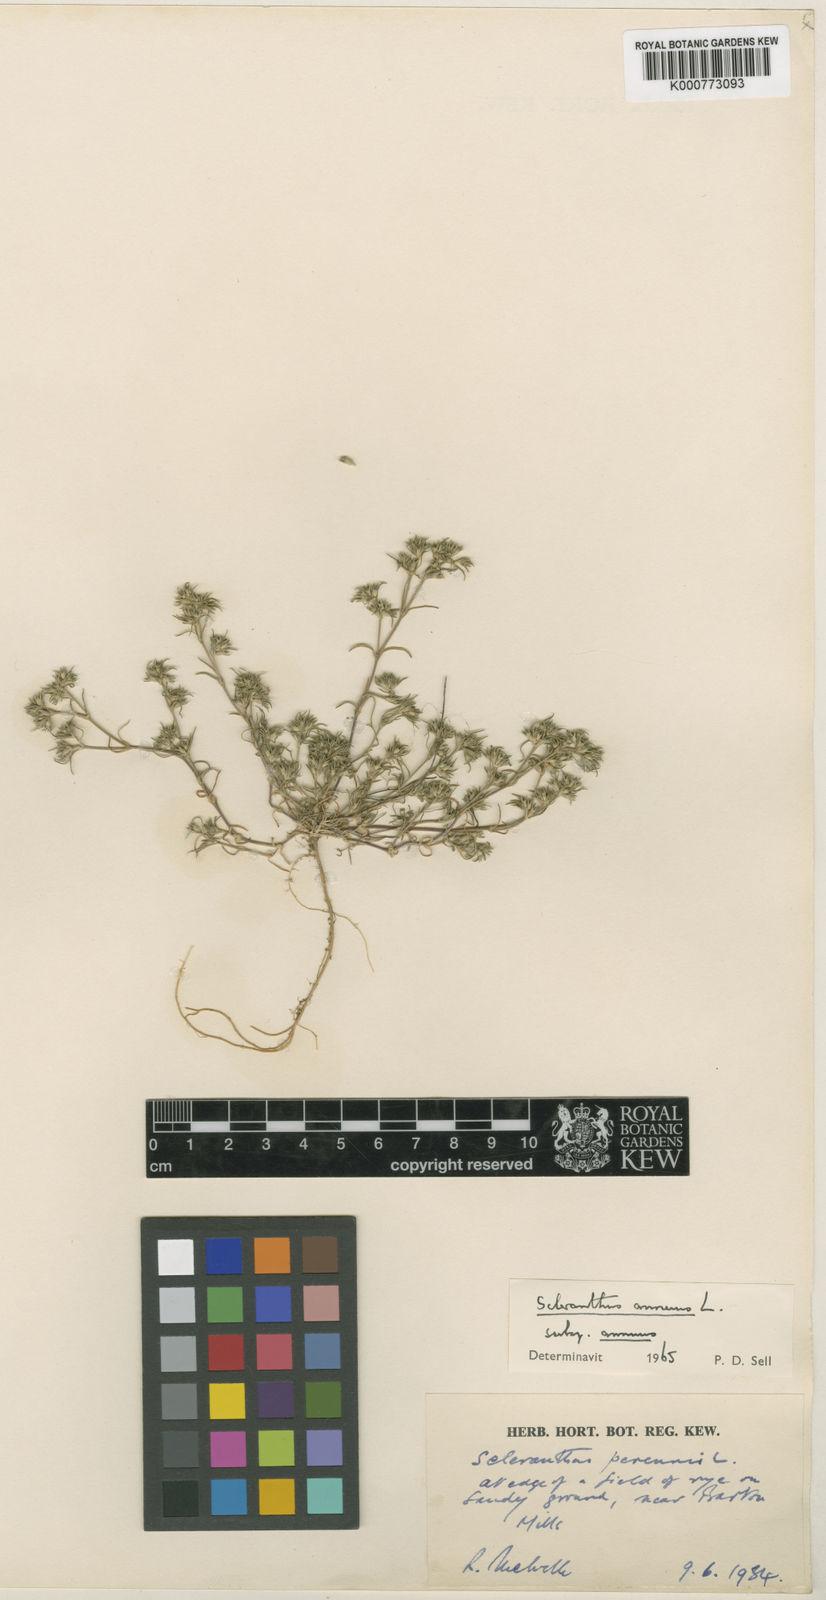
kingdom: Plantae
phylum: Tracheophyta
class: Magnoliopsida
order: Caryophyllales
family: Caryophyllaceae
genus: Scleranthus
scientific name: Scleranthus annuus
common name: Annual knawel
